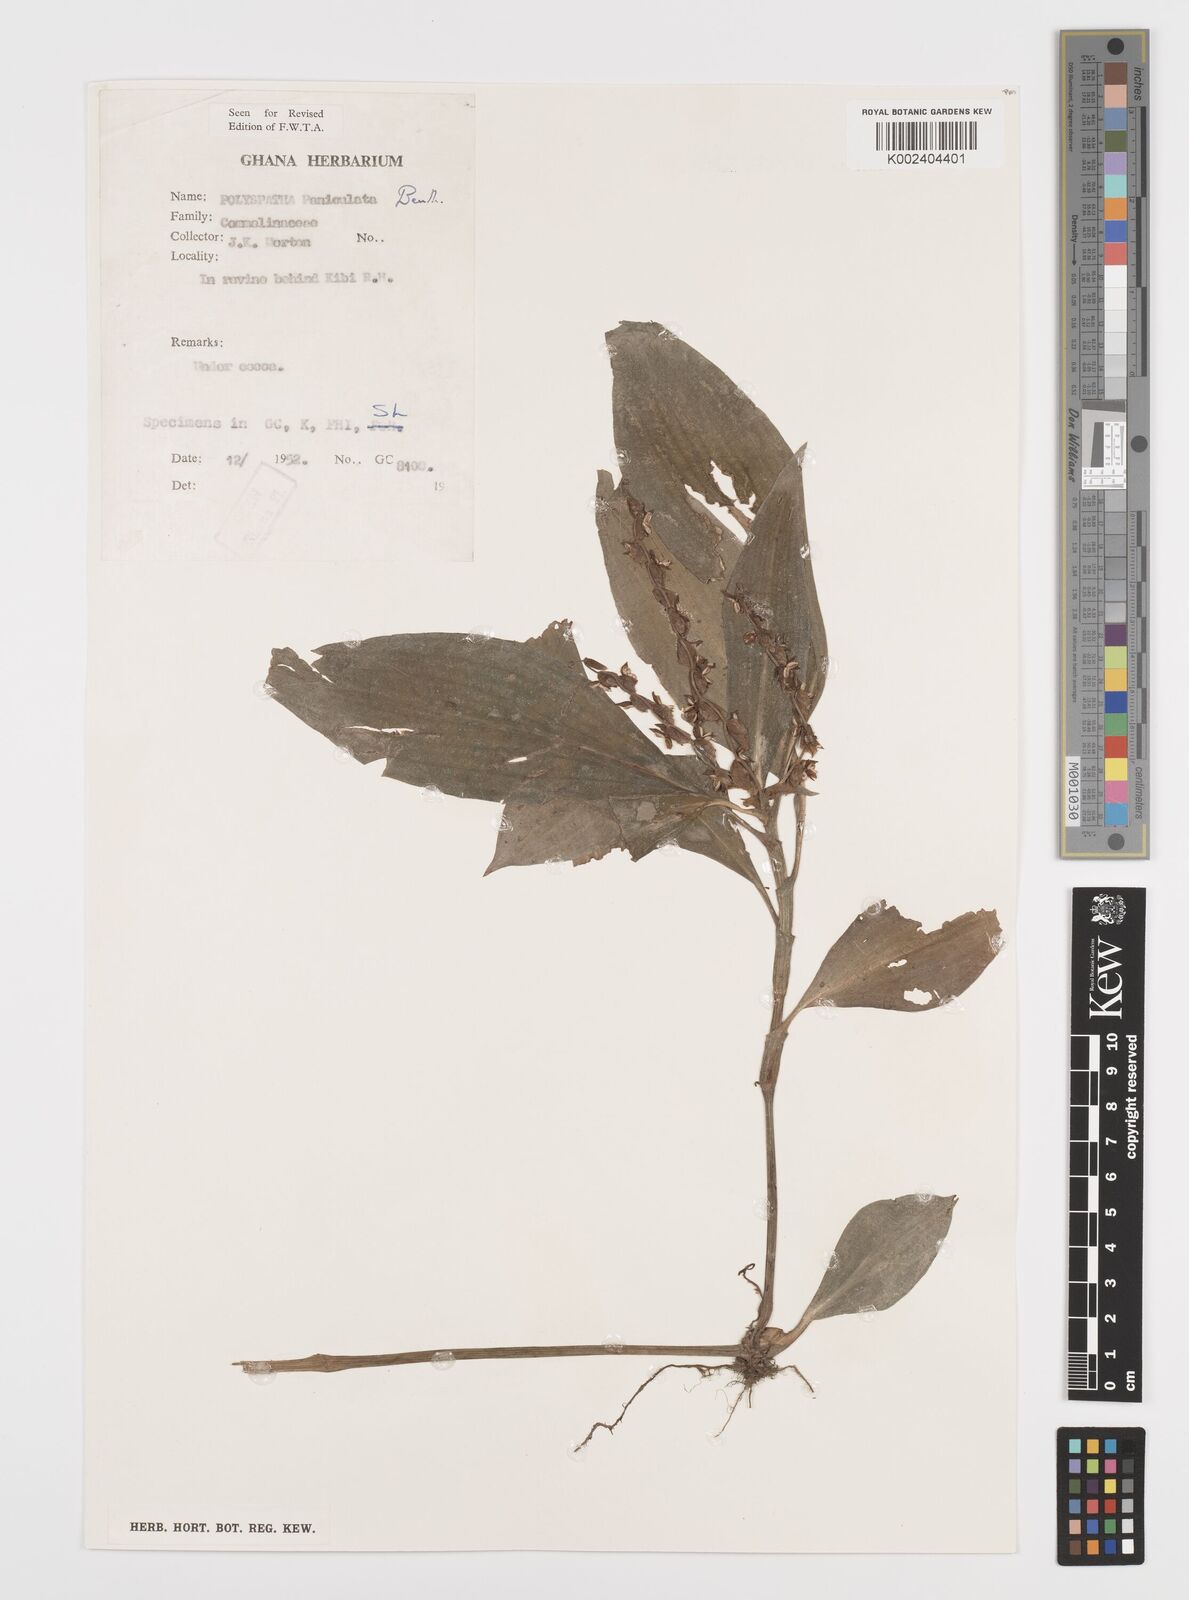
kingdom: Plantae
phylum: Tracheophyta
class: Liliopsida
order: Commelinales
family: Commelinaceae
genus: Polyspatha
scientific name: Polyspatha paniculata
